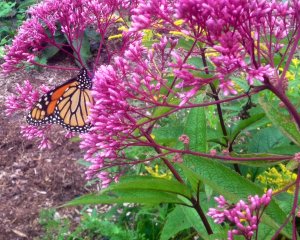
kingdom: Animalia
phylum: Arthropoda
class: Insecta
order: Lepidoptera
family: Nymphalidae
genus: Danaus
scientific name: Danaus plexippus
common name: Monarch
